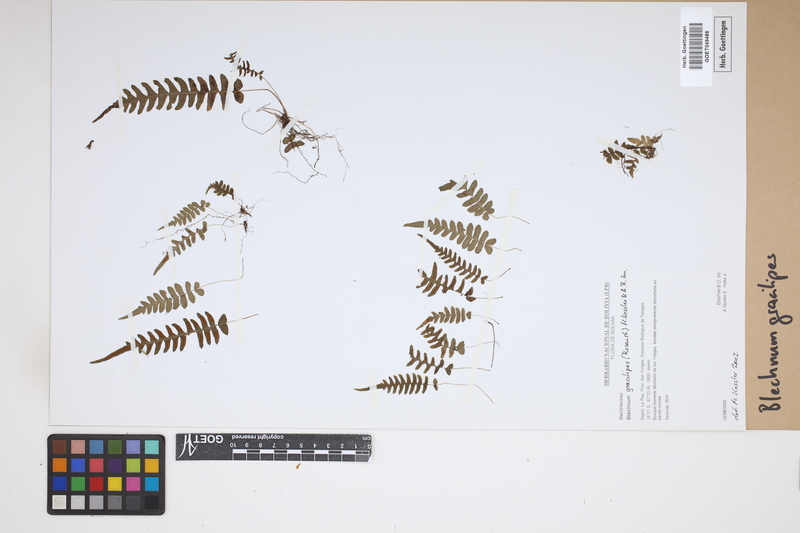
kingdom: Plantae
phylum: Tracheophyta
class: Polypodiopsida
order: Polypodiales
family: Blechnaceae
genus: Blechnum
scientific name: Blechnum gracilipes
